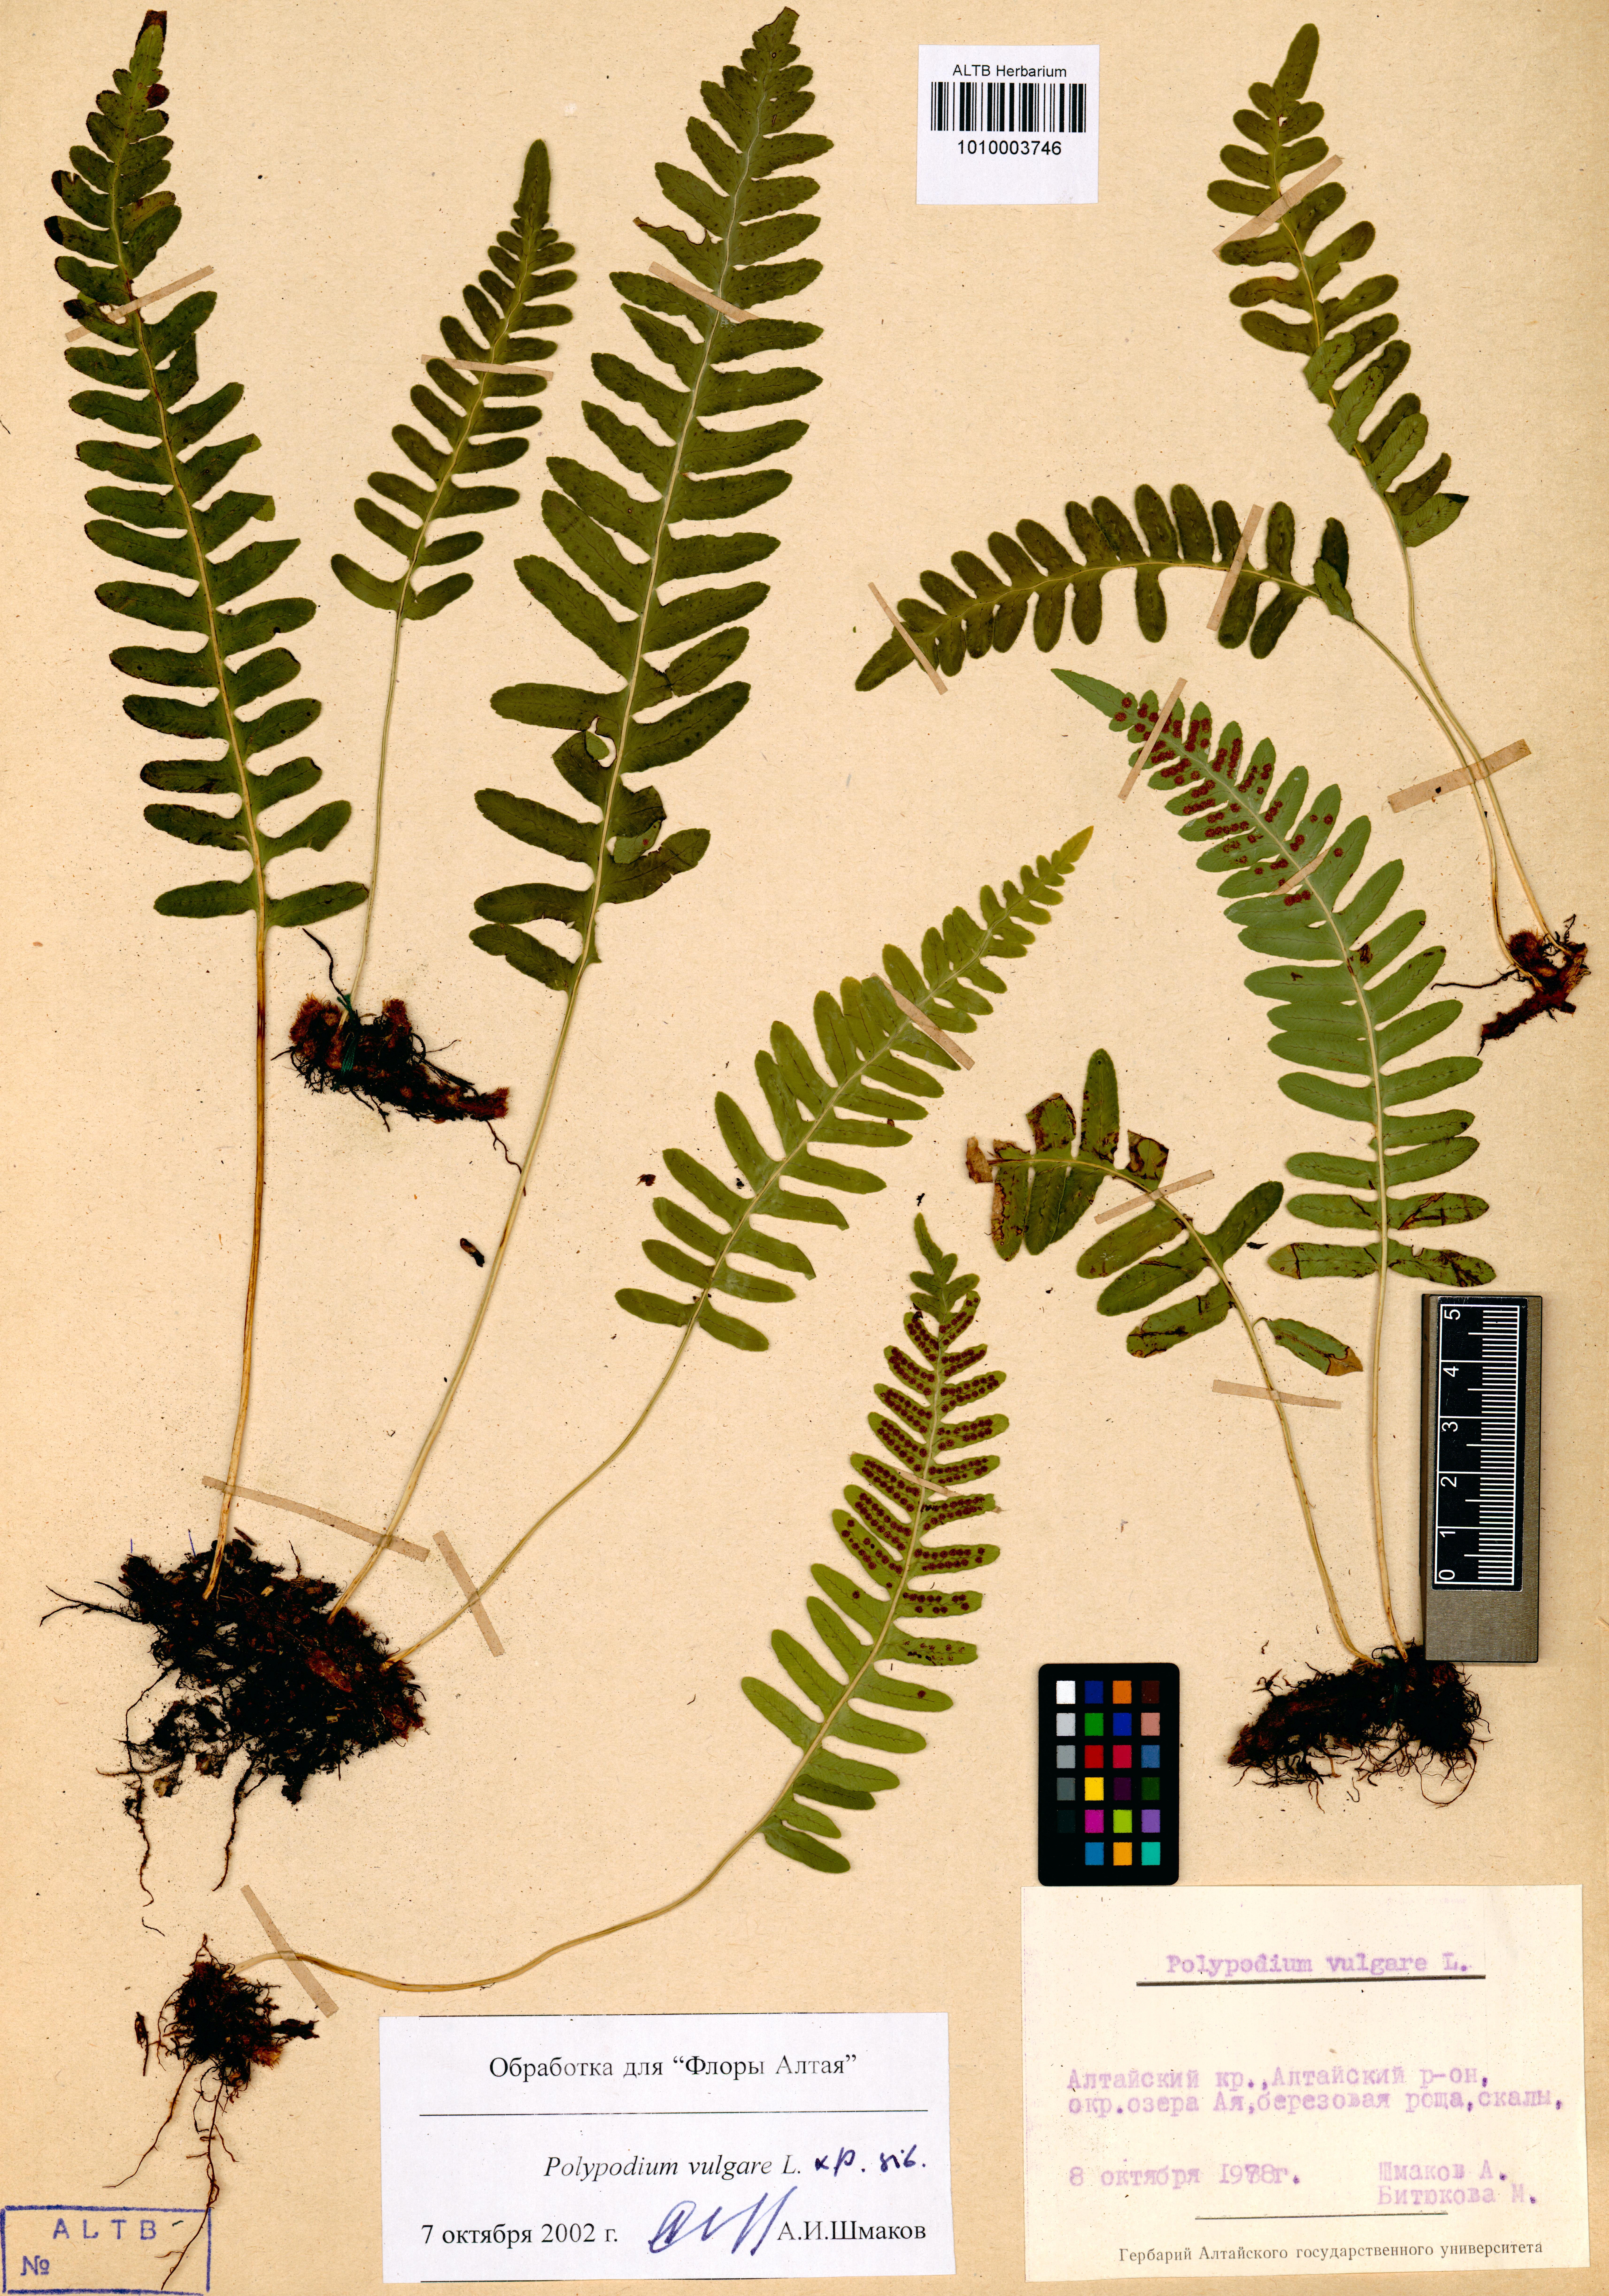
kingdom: Plantae
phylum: Tracheophyta
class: Polypodiopsida
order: Polypodiales
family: Polypodiaceae
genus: Polypodium
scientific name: Polypodium vulgare
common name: Common polypody
